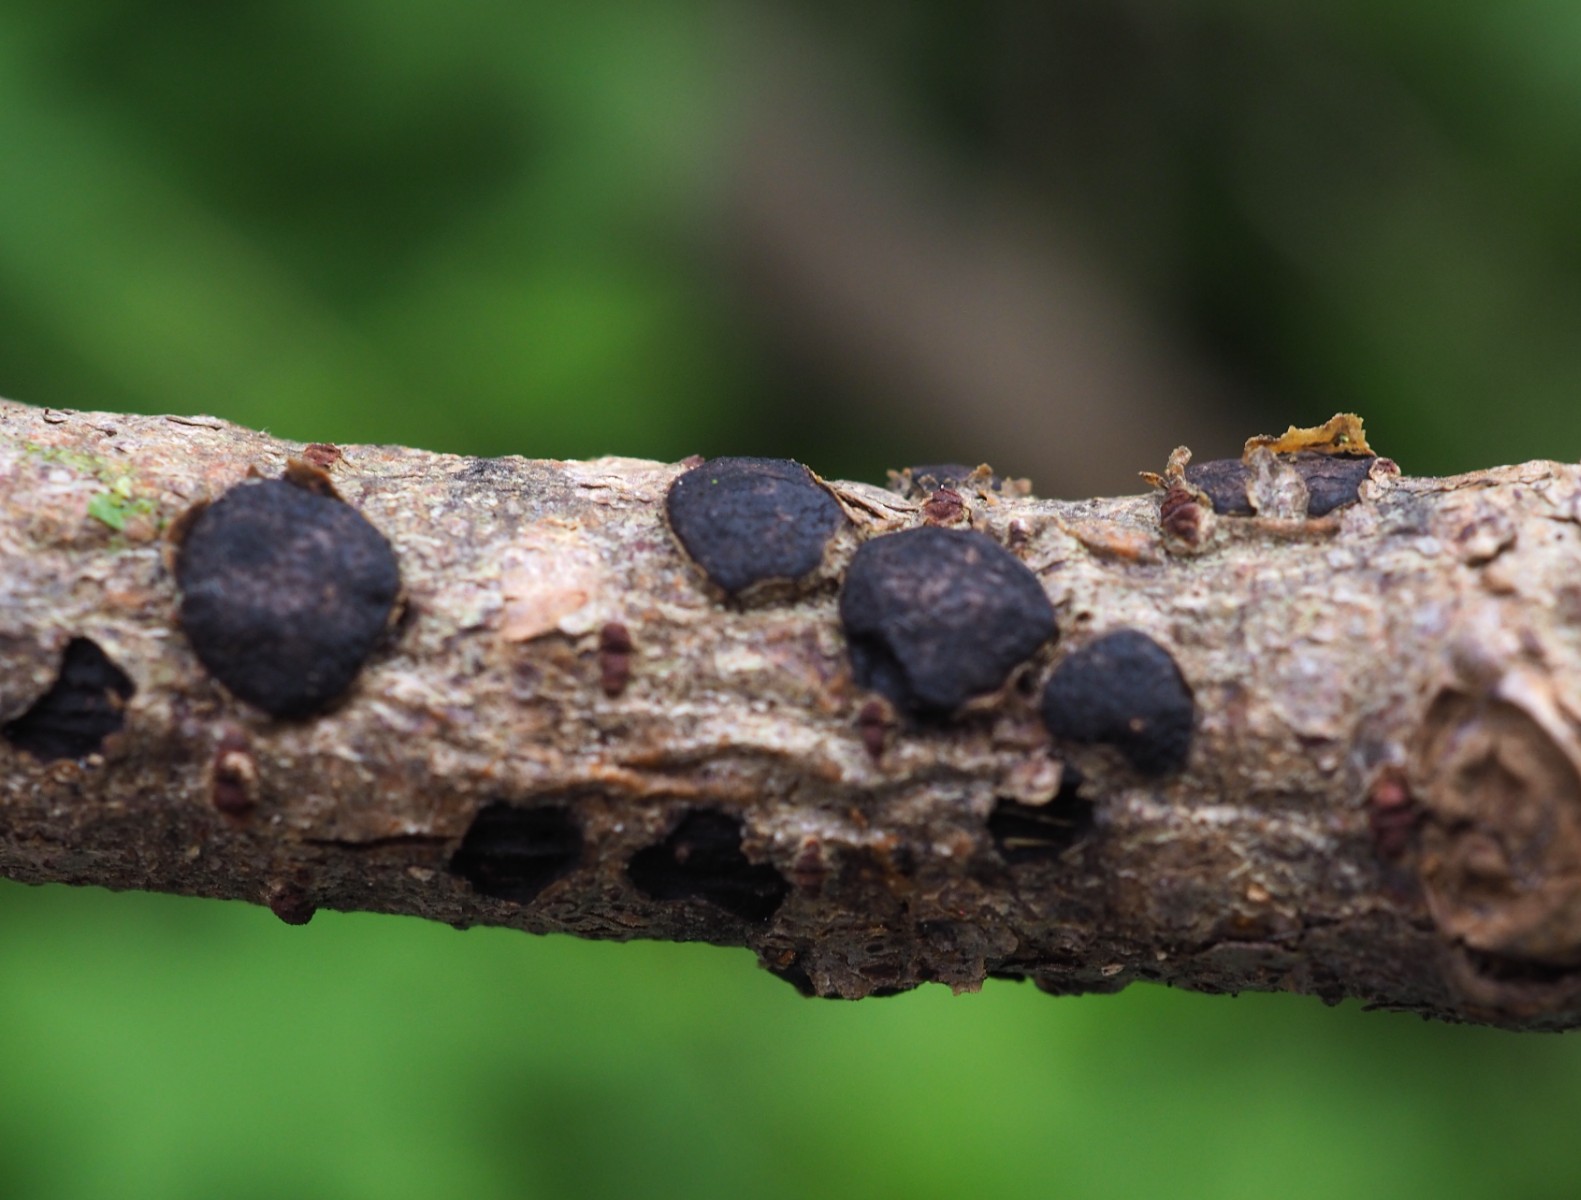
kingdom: Fungi
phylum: Ascomycota
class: Sordariomycetes
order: Xylariales
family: Diatrypaceae
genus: Diatrype
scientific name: Diatrype bullata
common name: pile-kulskorpe
